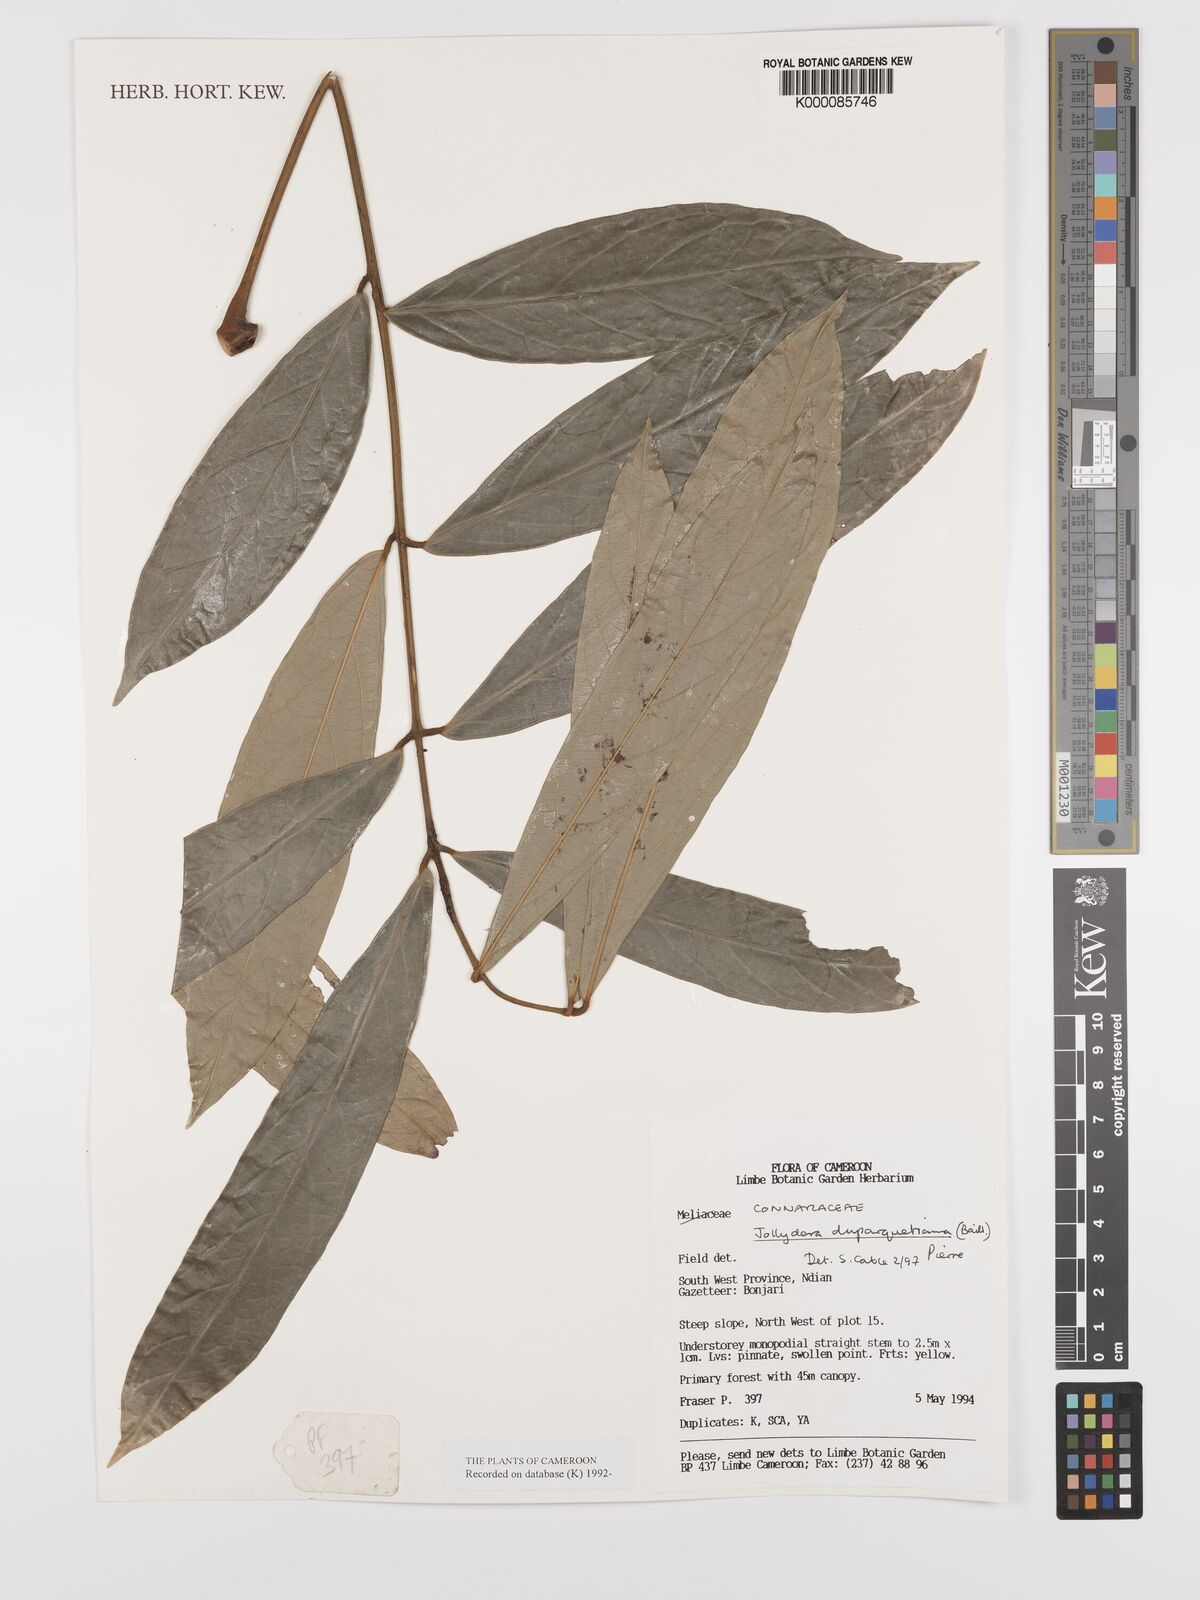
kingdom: Plantae
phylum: Tracheophyta
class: Magnoliopsida
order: Oxalidales
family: Connaraceae
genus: Jollydora
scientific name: Jollydora duparquetiana
